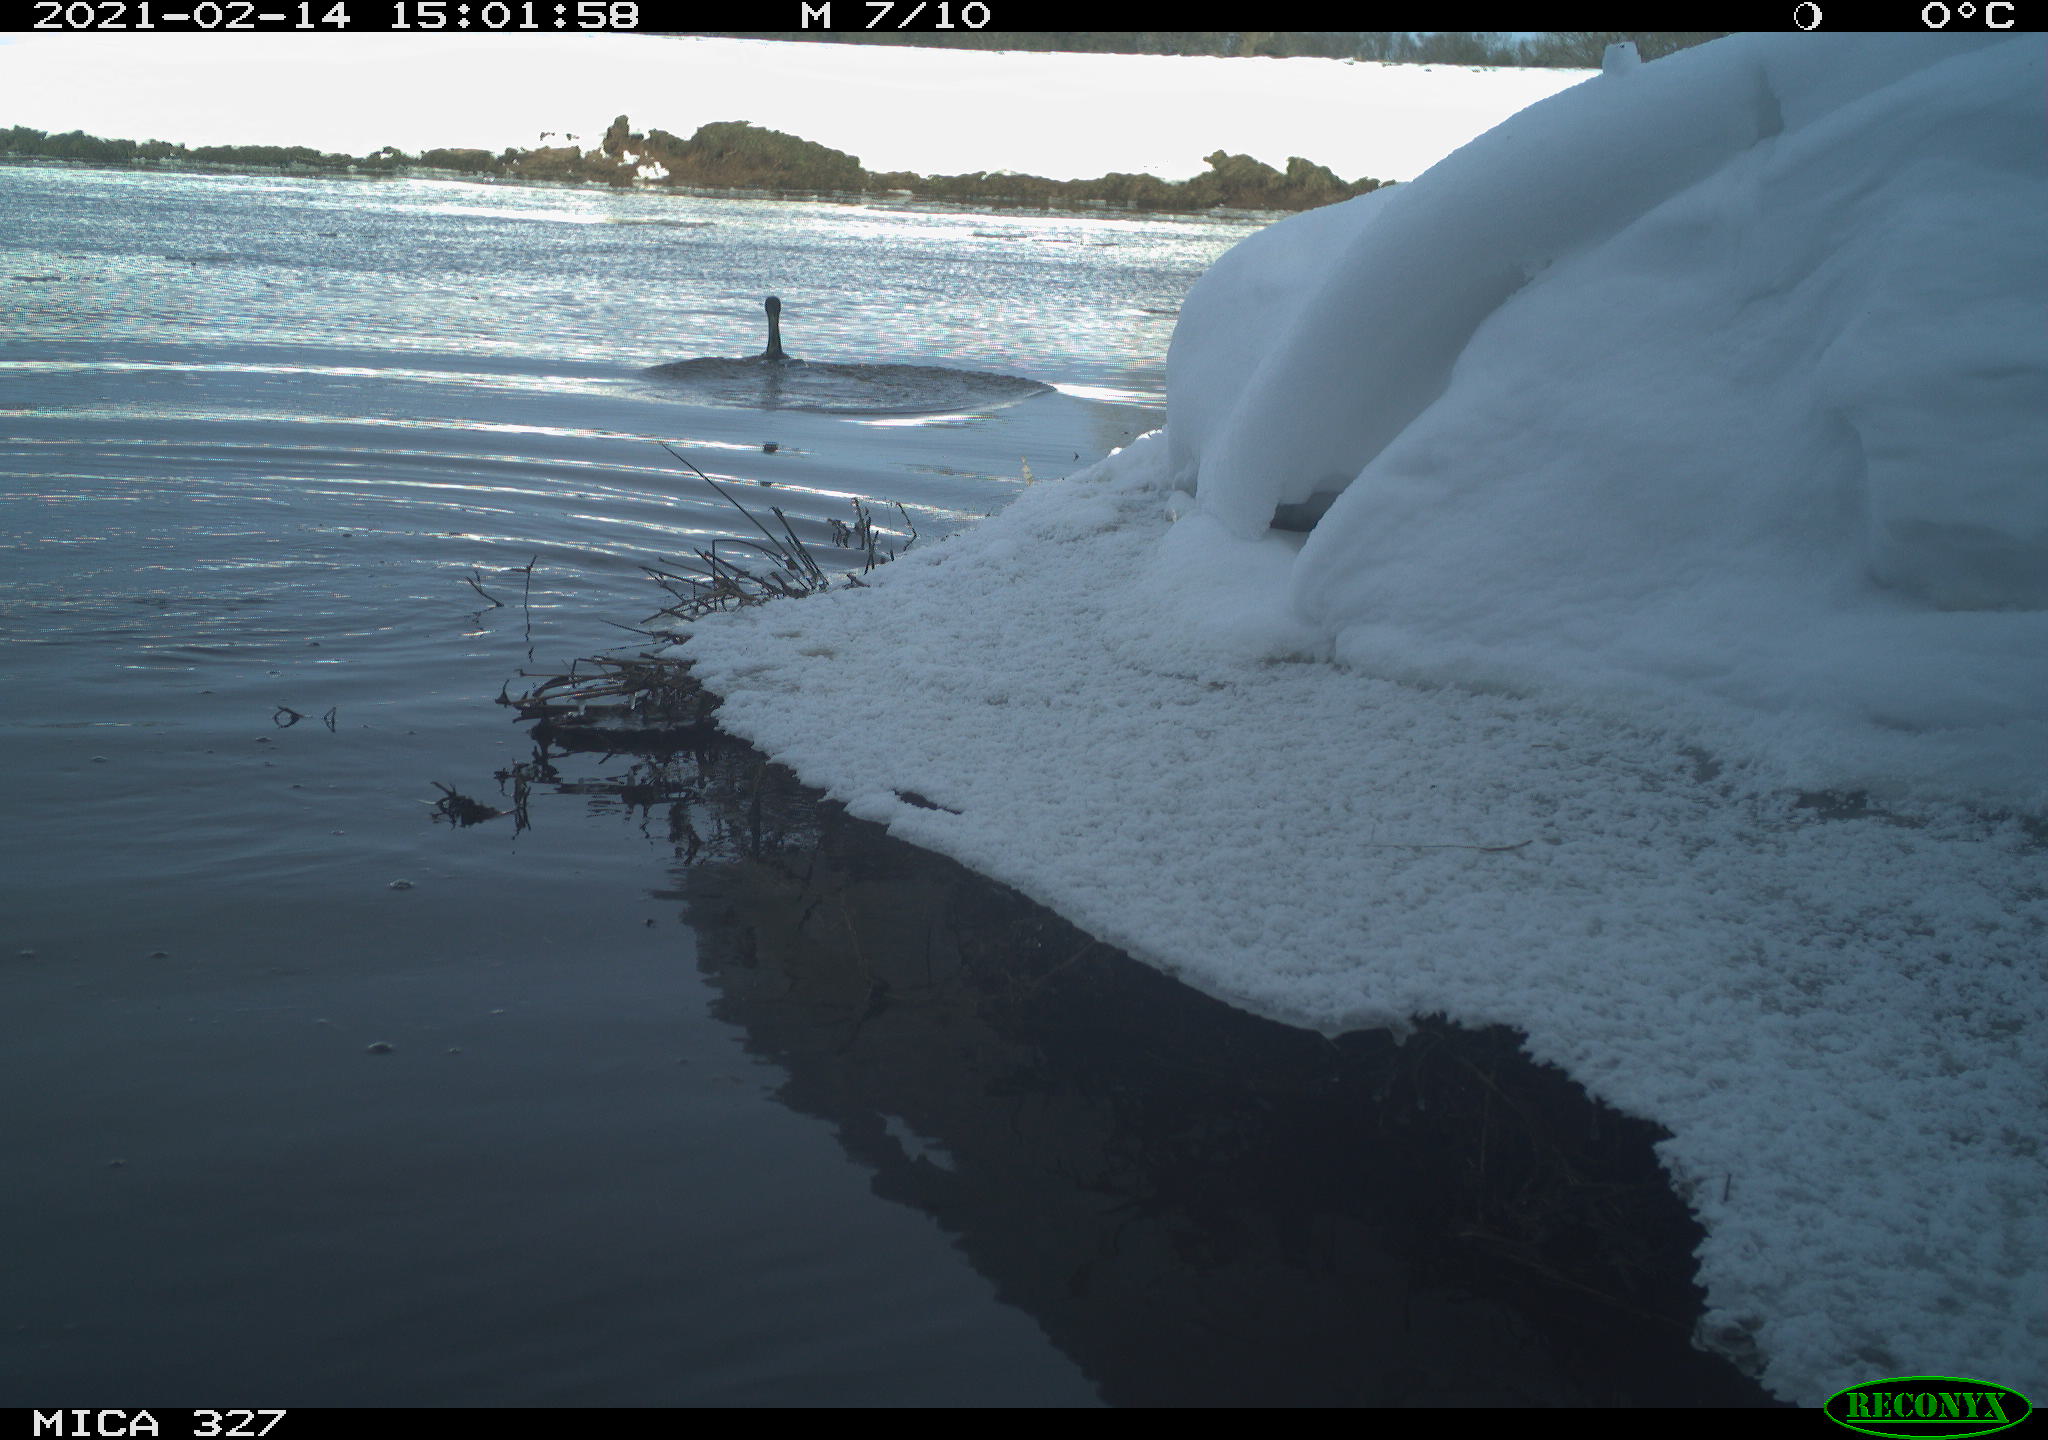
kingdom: Animalia
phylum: Chordata
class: Aves
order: Anseriformes
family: Anatidae
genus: Anas
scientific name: Anas
